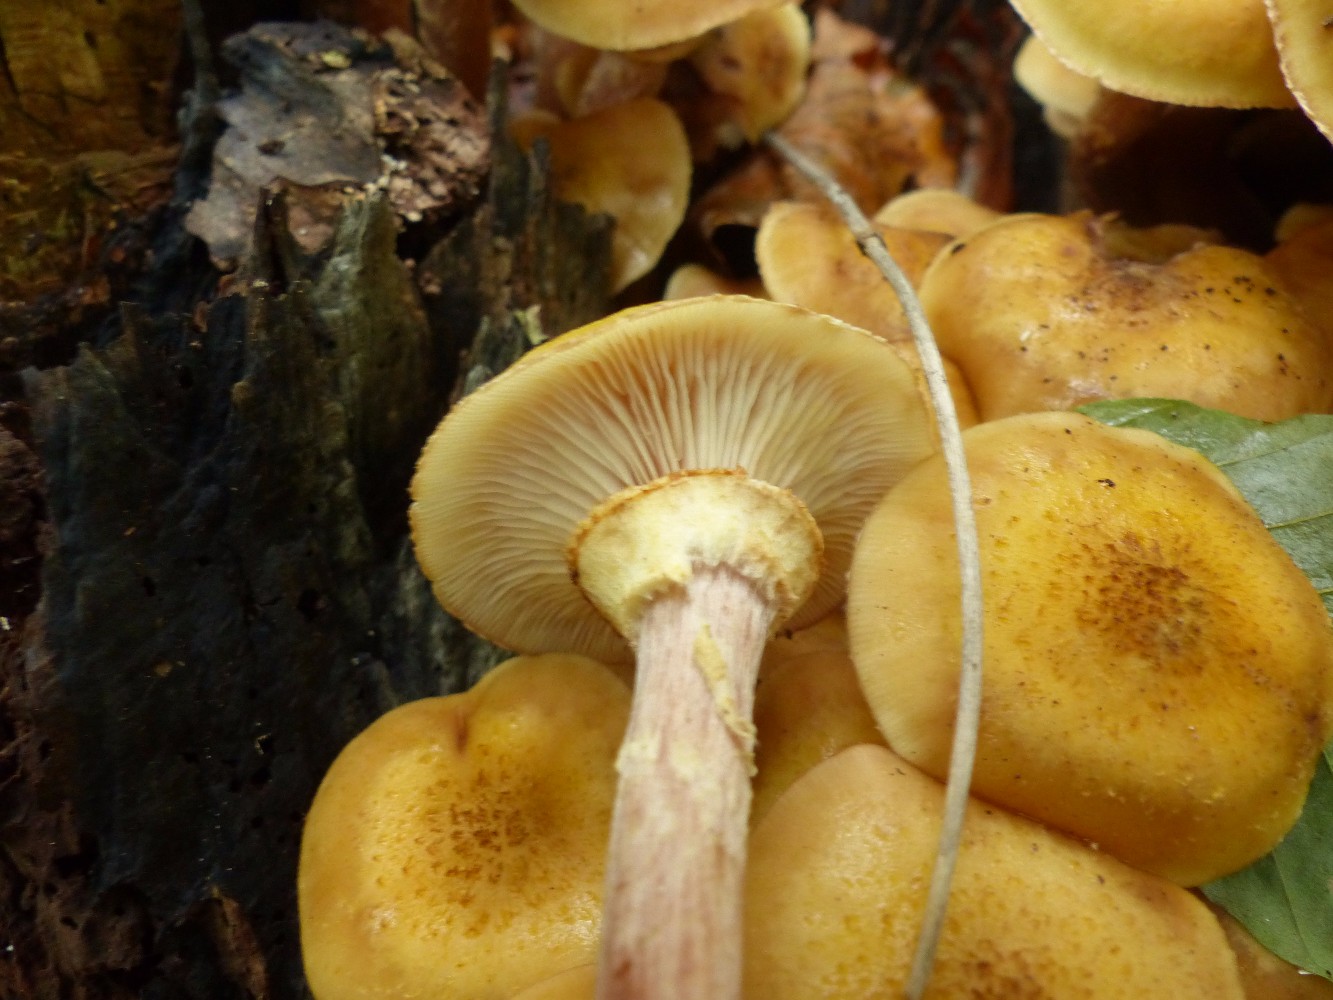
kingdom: Fungi
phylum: Basidiomycota
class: Agaricomycetes
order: Agaricales
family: Physalacriaceae
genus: Armillaria
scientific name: Armillaria mellea
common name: ægte honningsvamp
